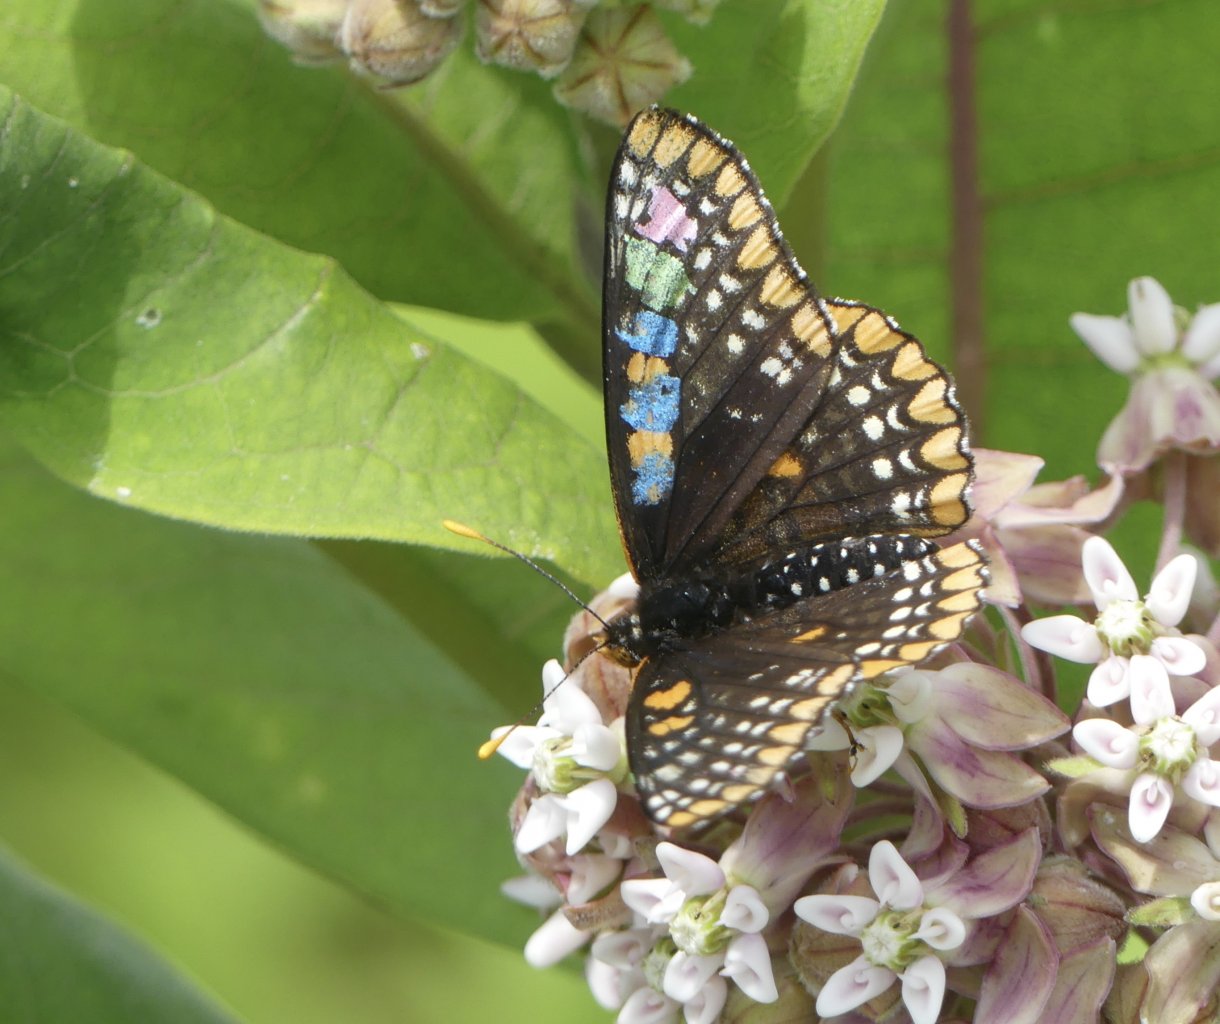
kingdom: Animalia
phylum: Arthropoda
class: Insecta
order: Lepidoptera
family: Nymphalidae
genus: Euphydryas
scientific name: Euphydryas phaeton
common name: Baltimore Checkerspot
